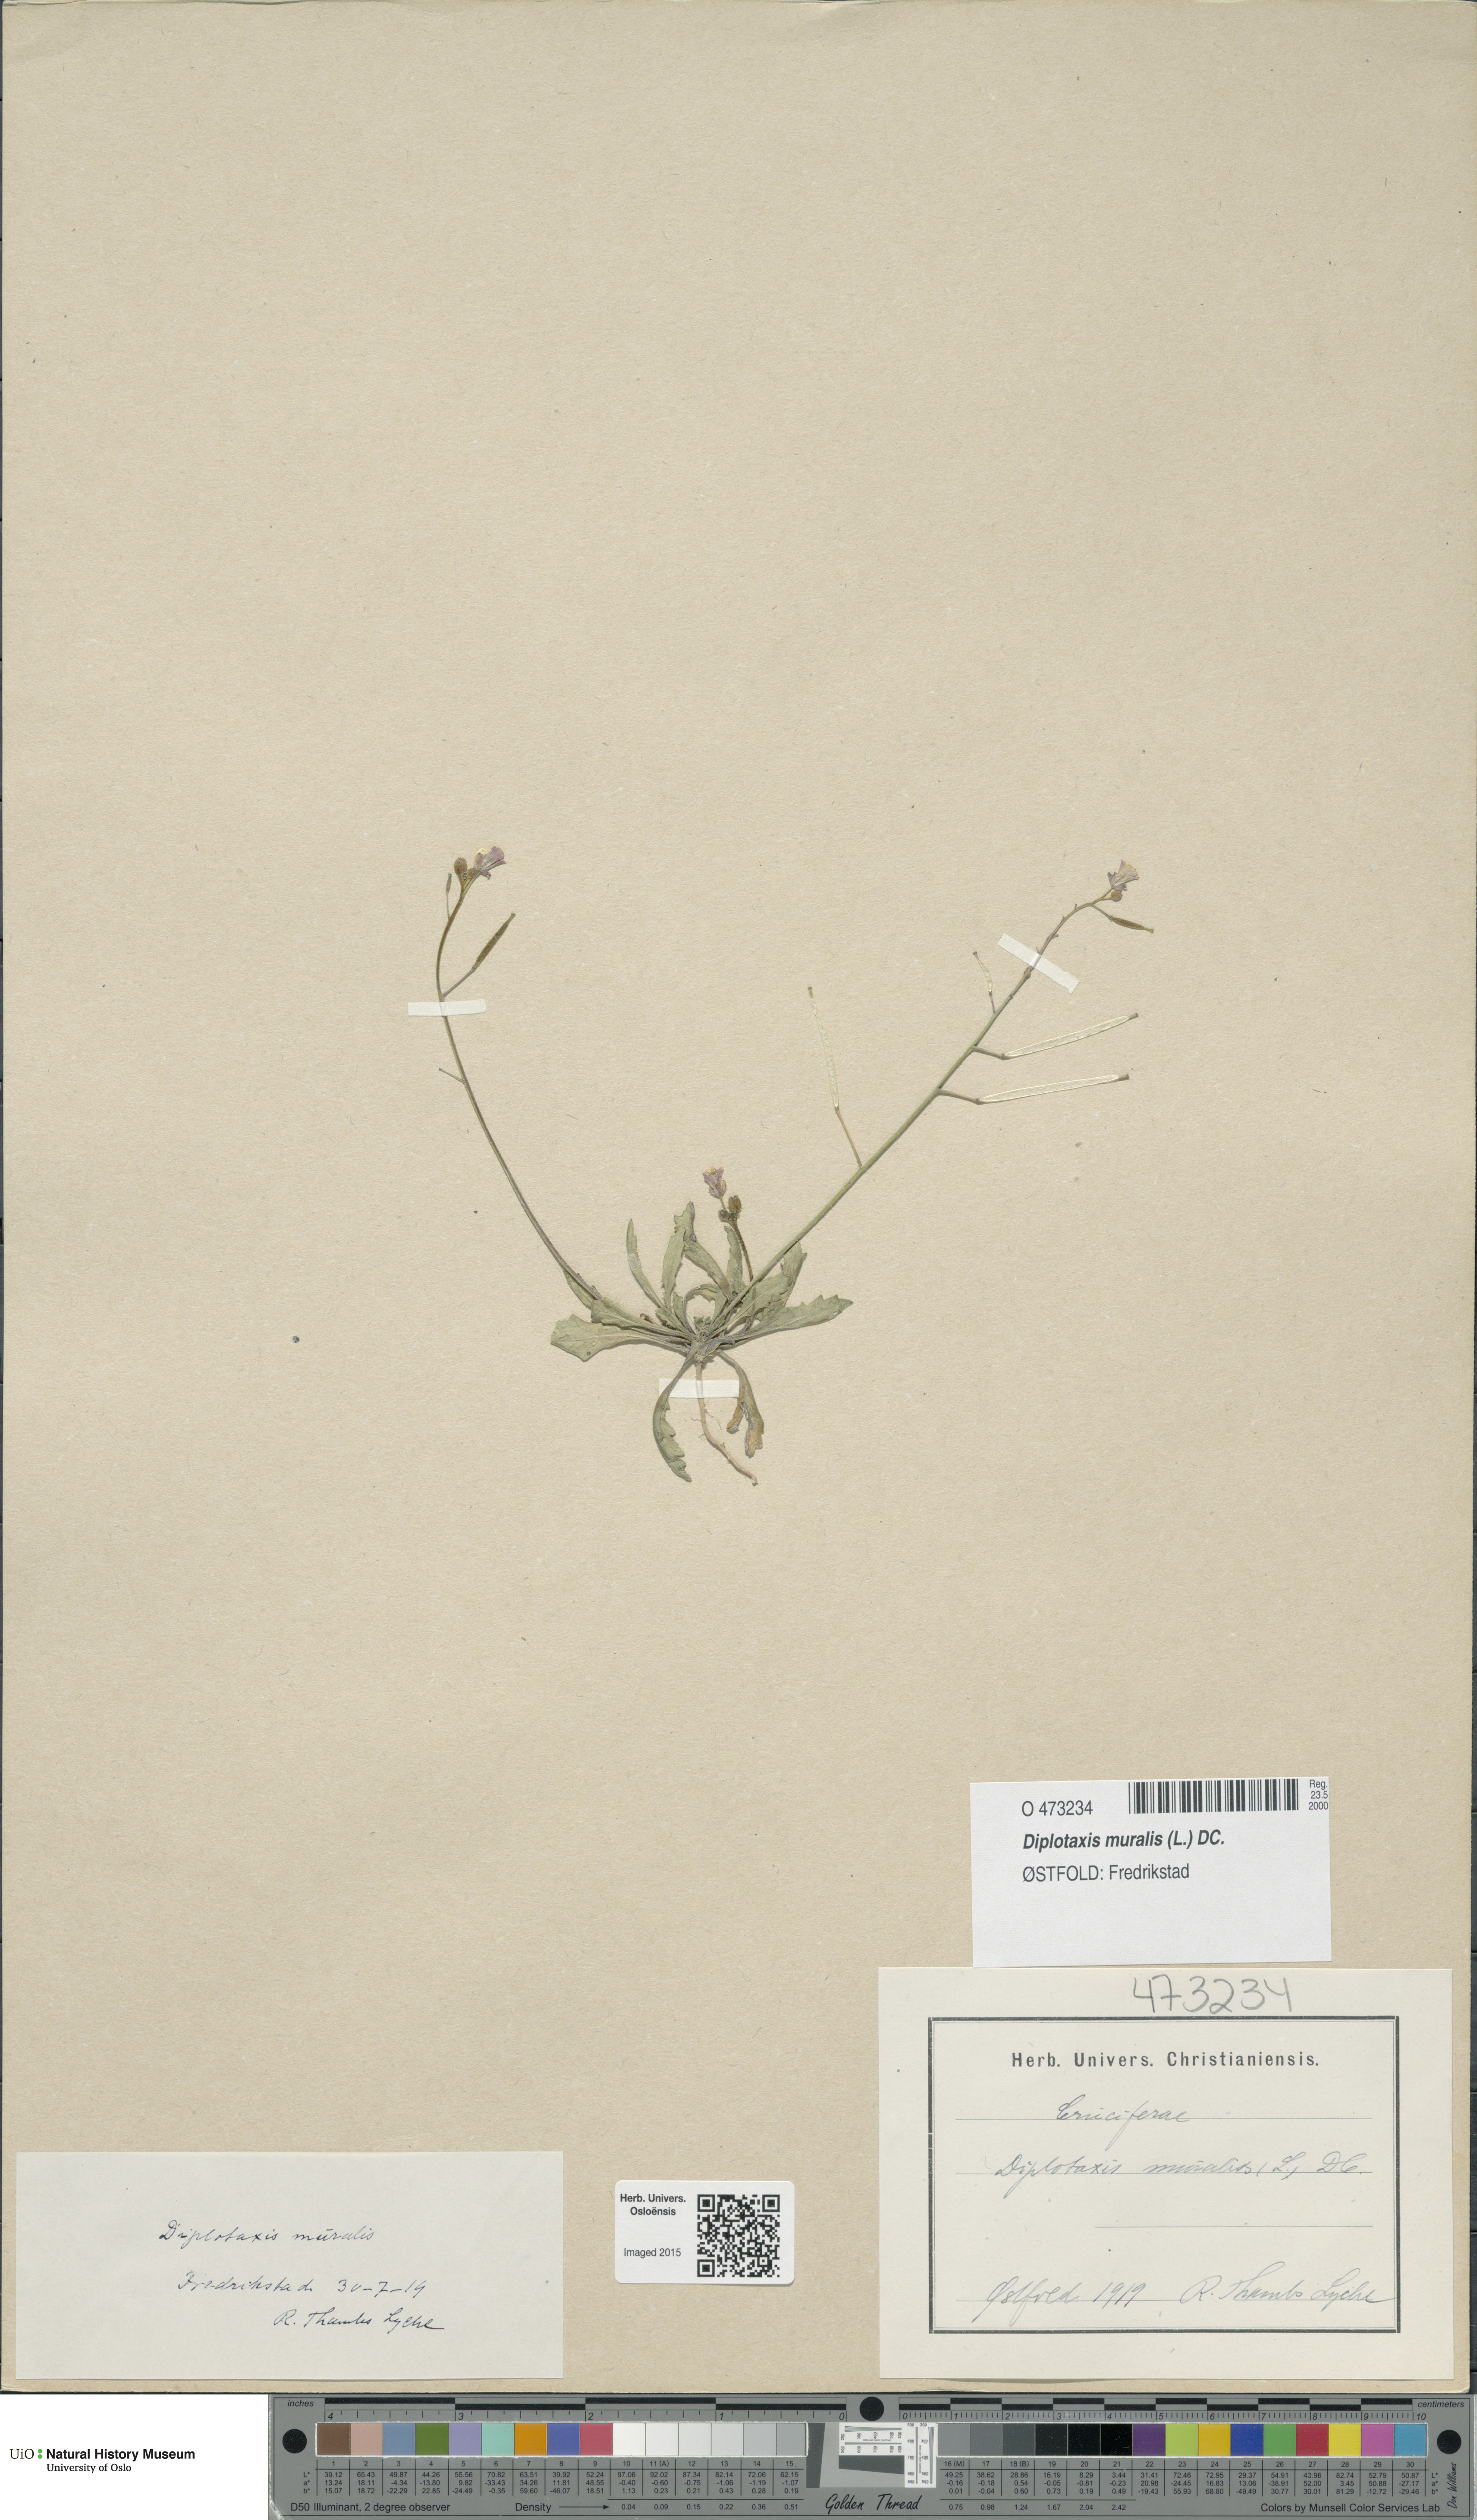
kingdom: Plantae
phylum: Tracheophyta
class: Magnoliopsida
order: Brassicales
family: Brassicaceae
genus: Diplotaxis
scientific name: Diplotaxis muralis
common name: Annual wall-rocket
